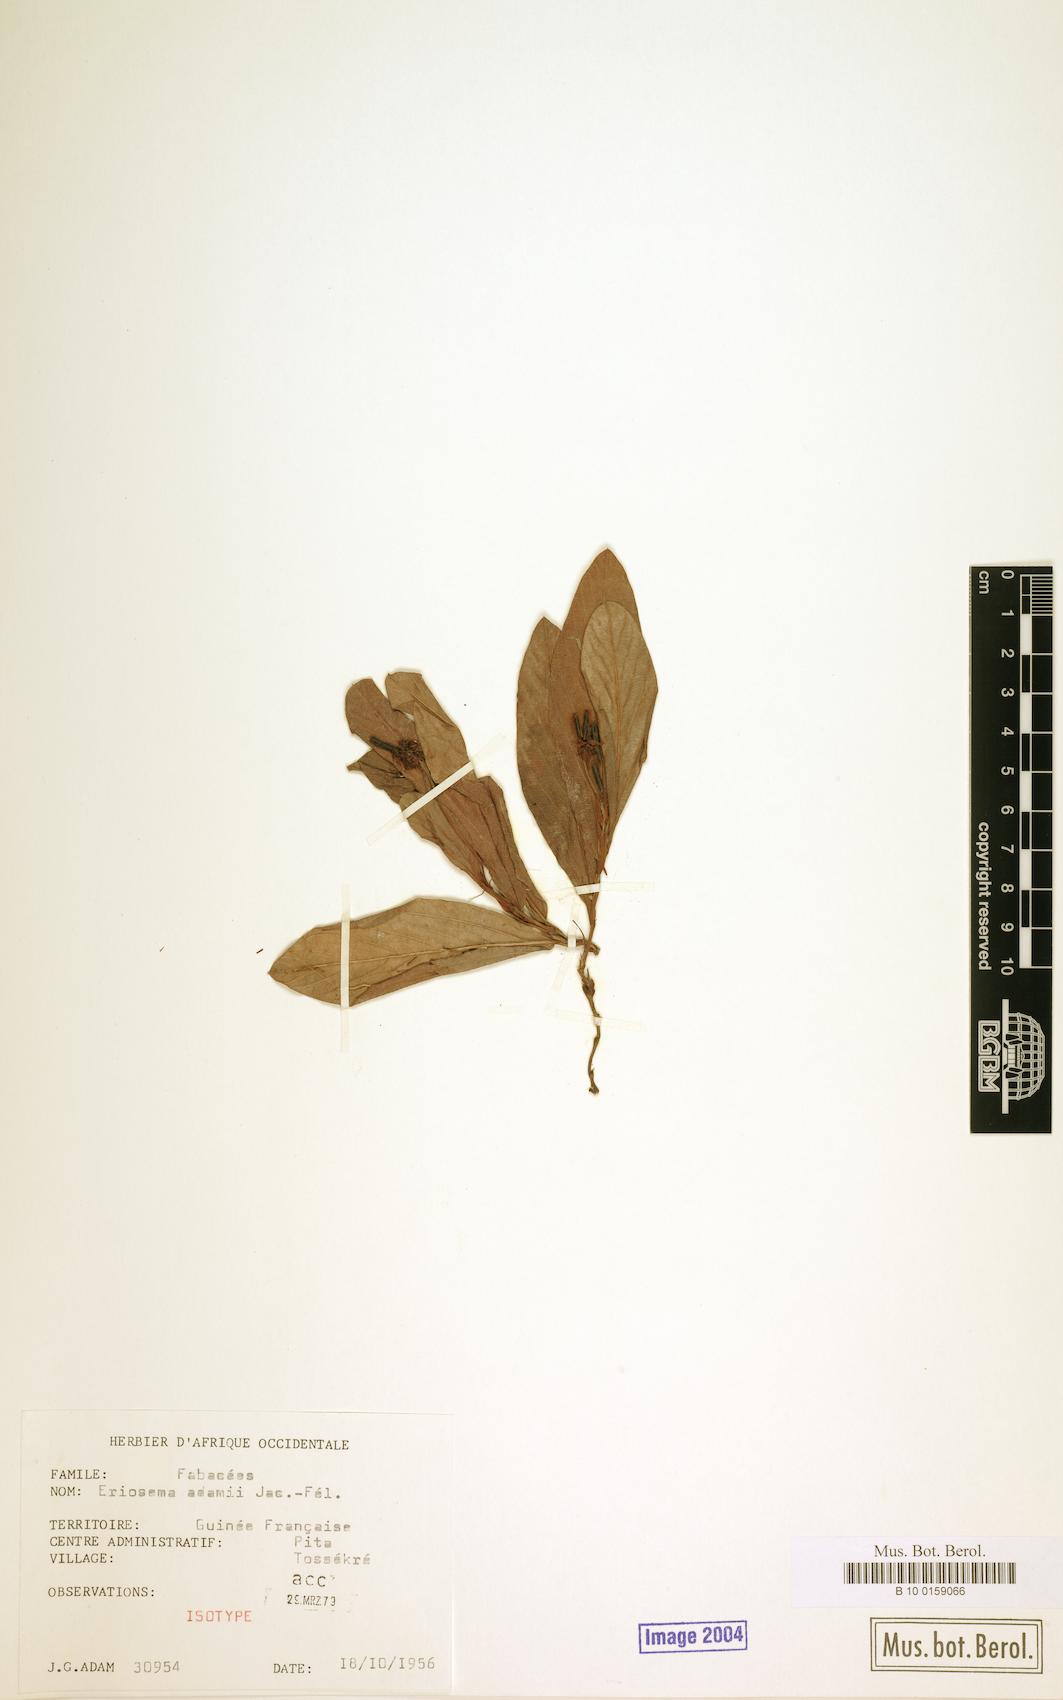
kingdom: Plantae
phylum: Tracheophyta
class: Magnoliopsida
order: Fabales
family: Fabaceae
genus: Eriosema
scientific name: Eriosema adami
